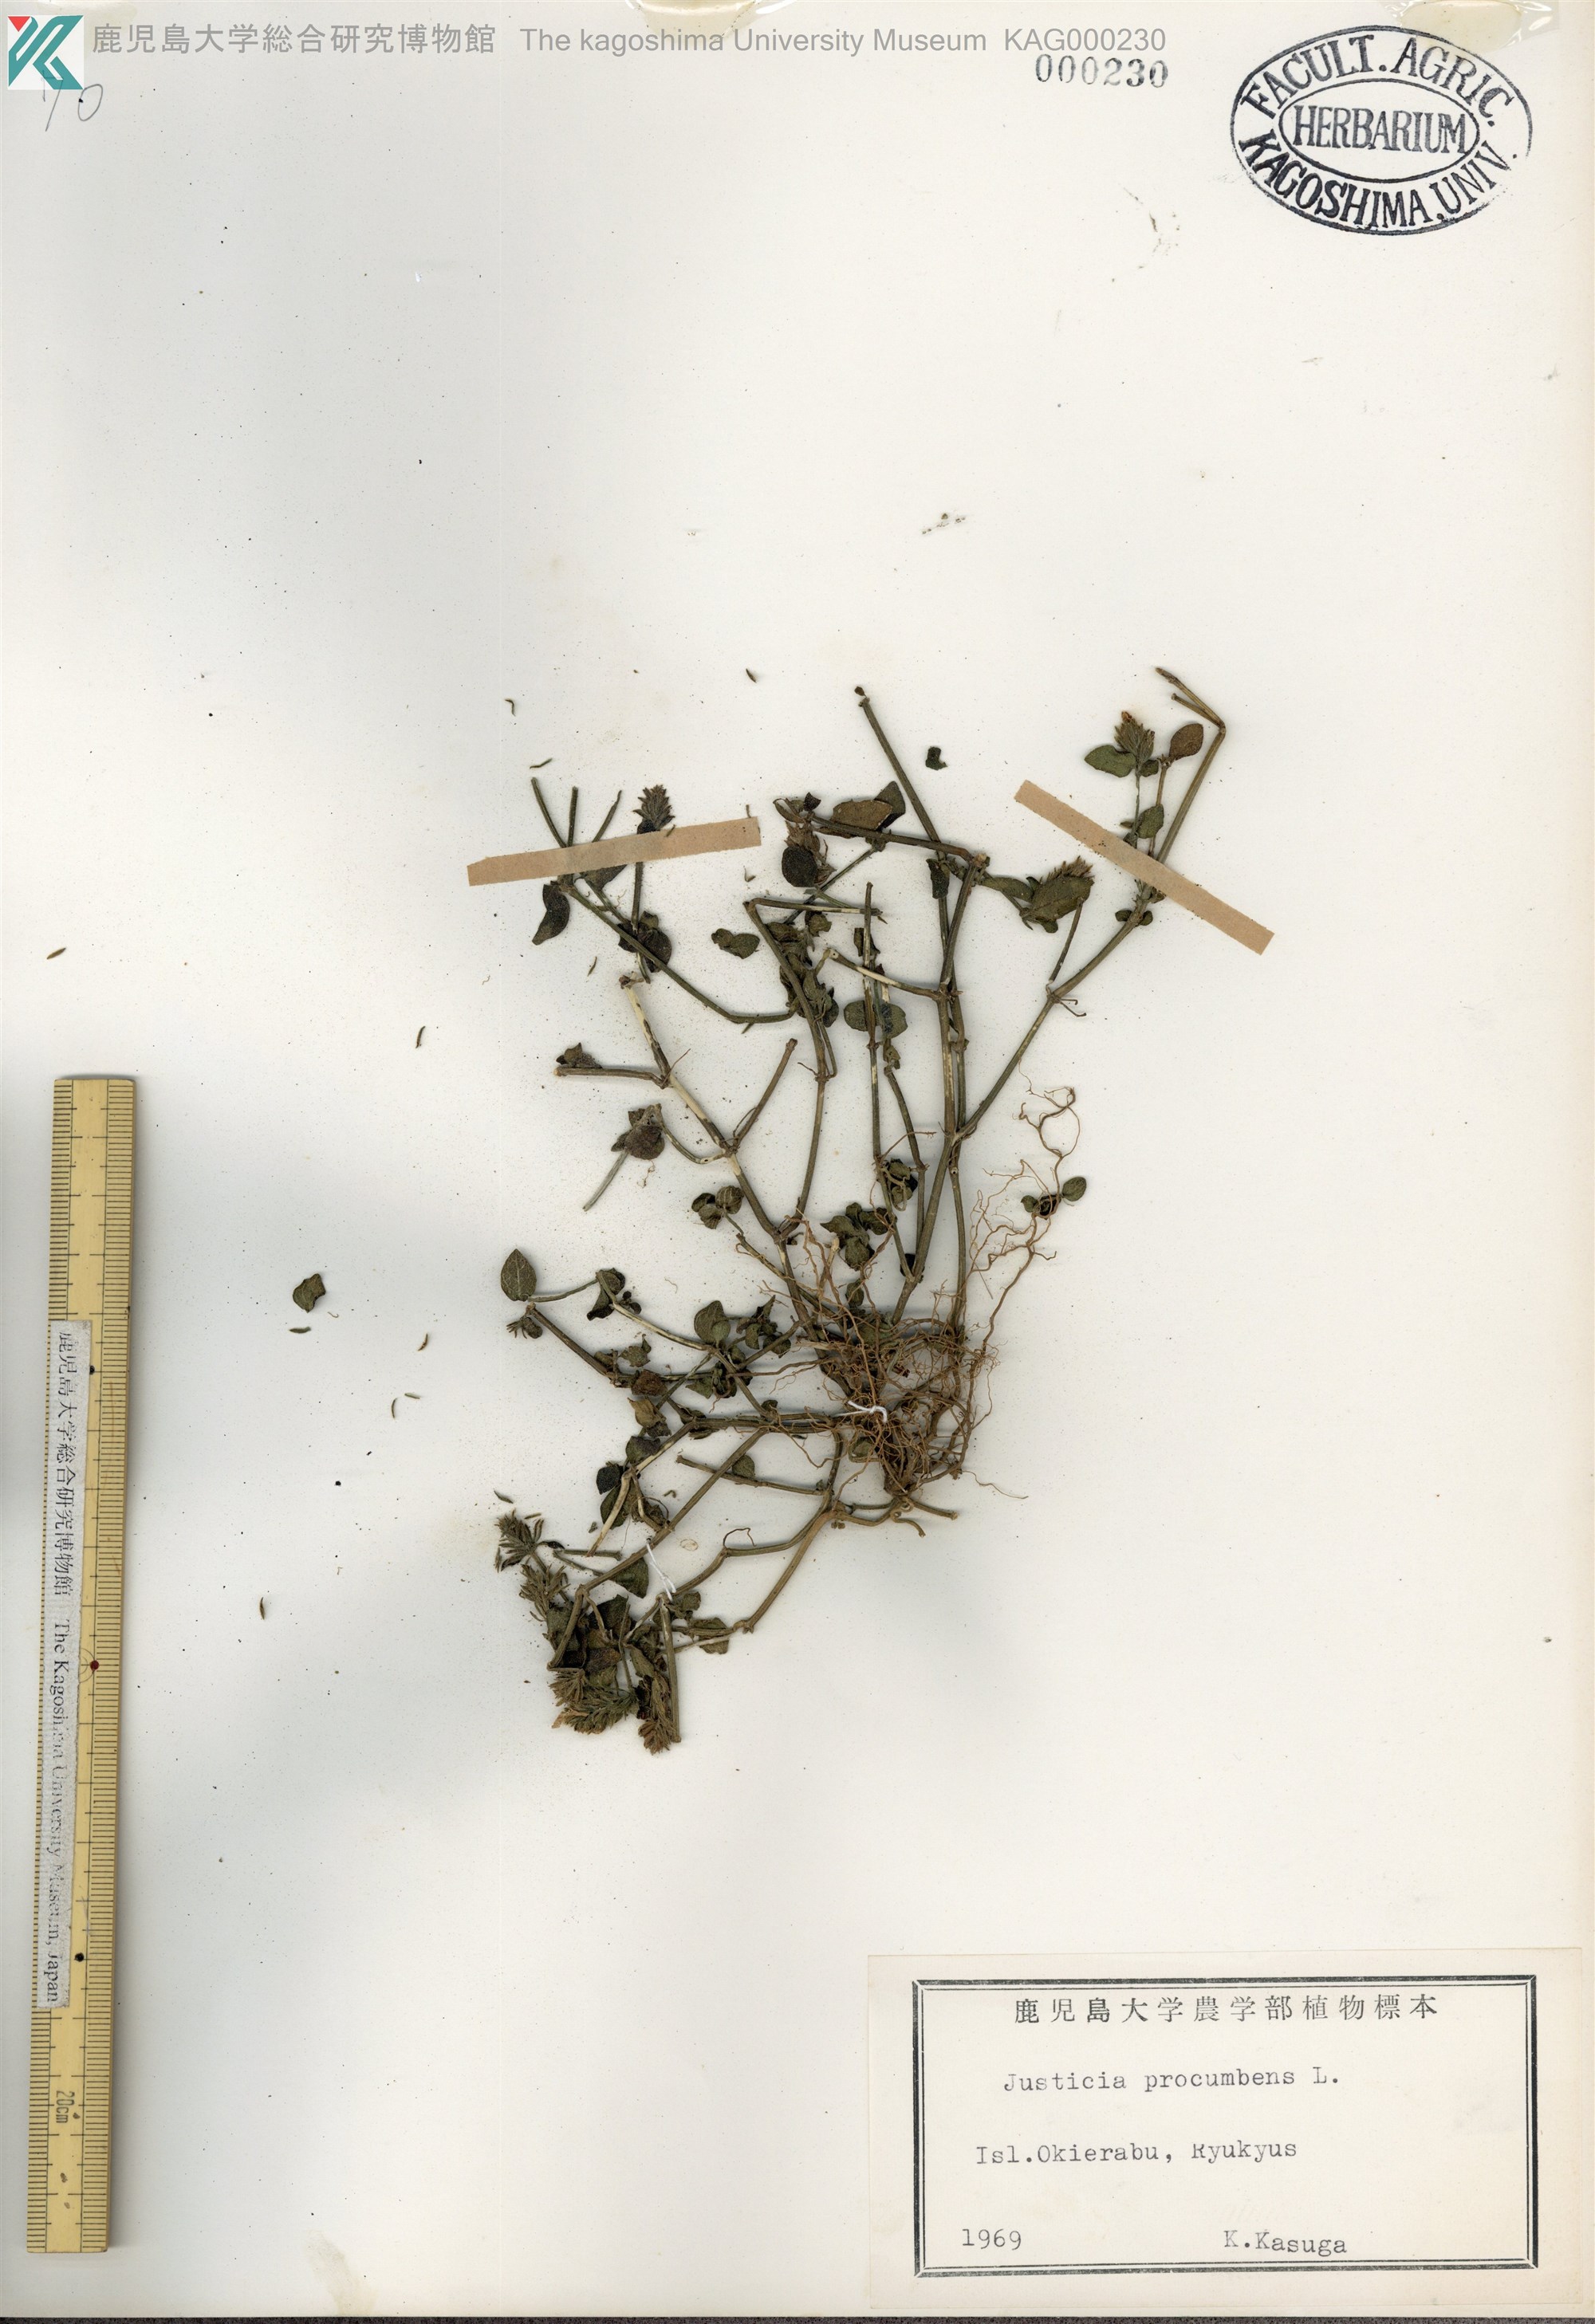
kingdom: Plantae
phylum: Tracheophyta
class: Magnoliopsida
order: Lamiales
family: Acanthaceae
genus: Rostellularia
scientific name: Rostellularia procumbens
